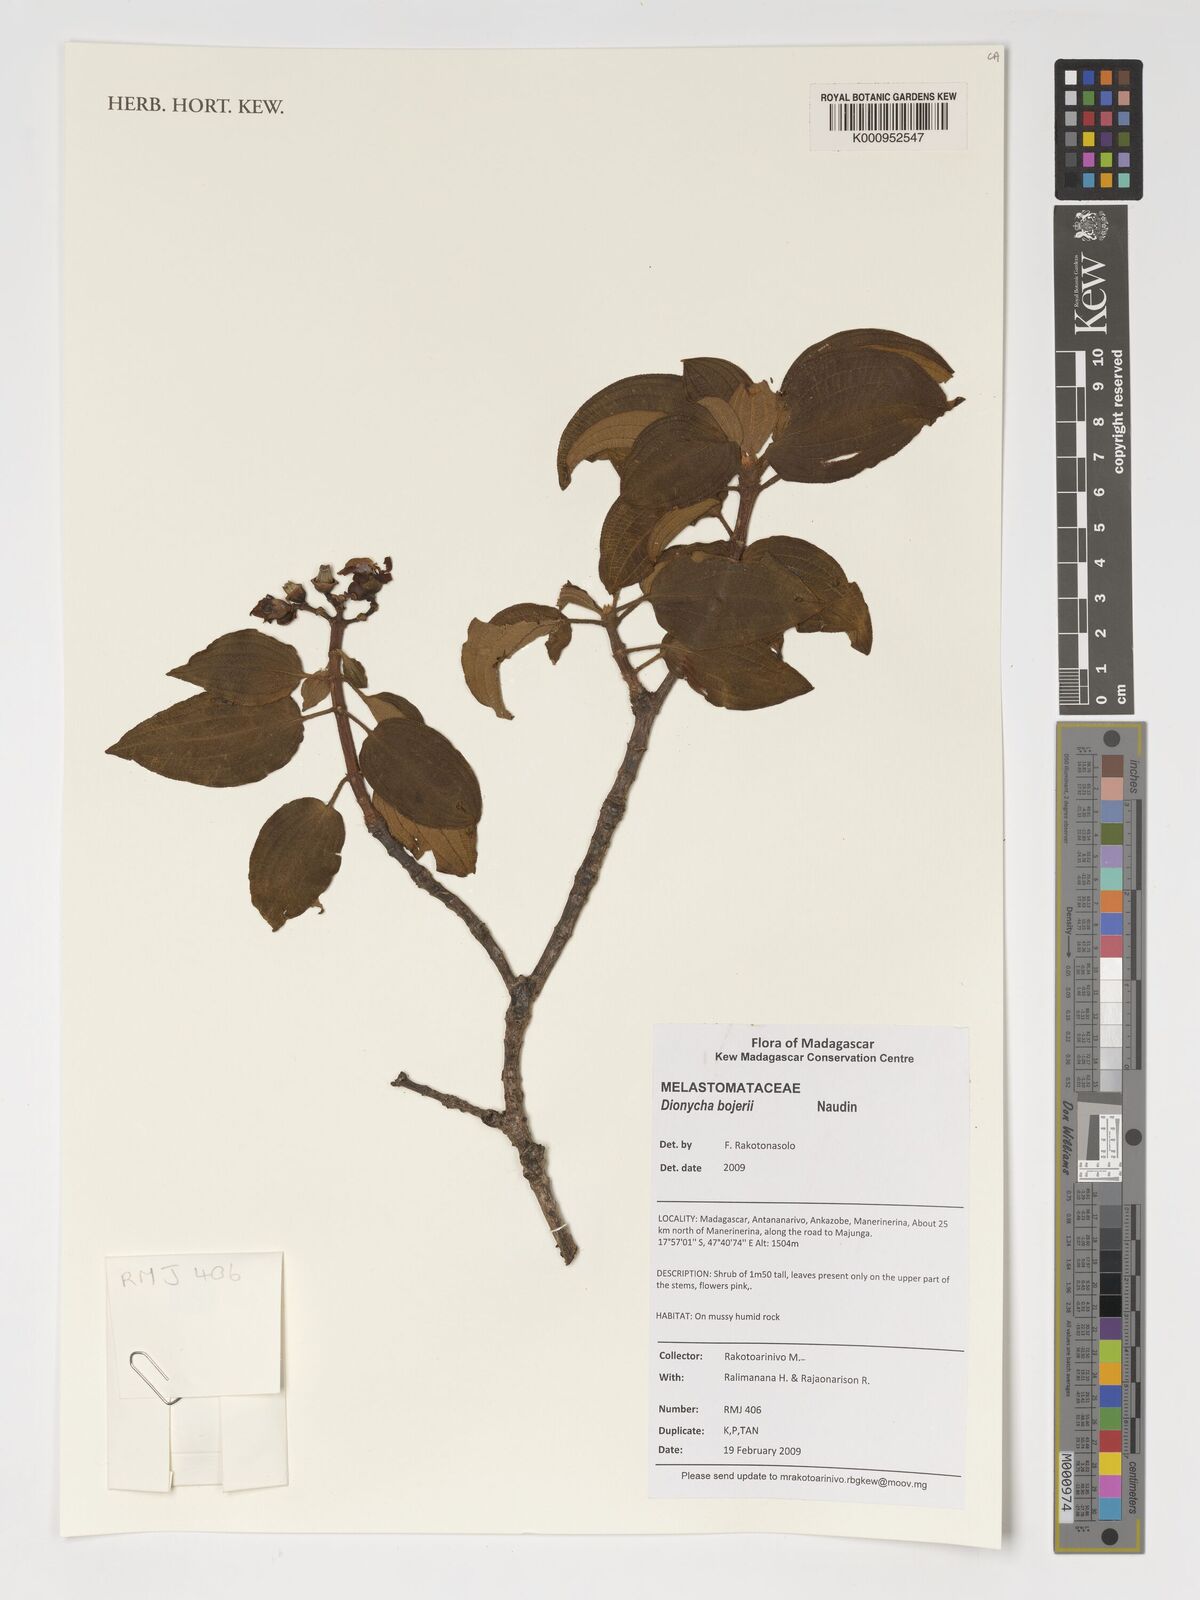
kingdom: Plantae
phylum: Tracheophyta
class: Magnoliopsida
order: Myrtales
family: Melastomataceae
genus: Dionycha
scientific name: Dionycha bojerii
